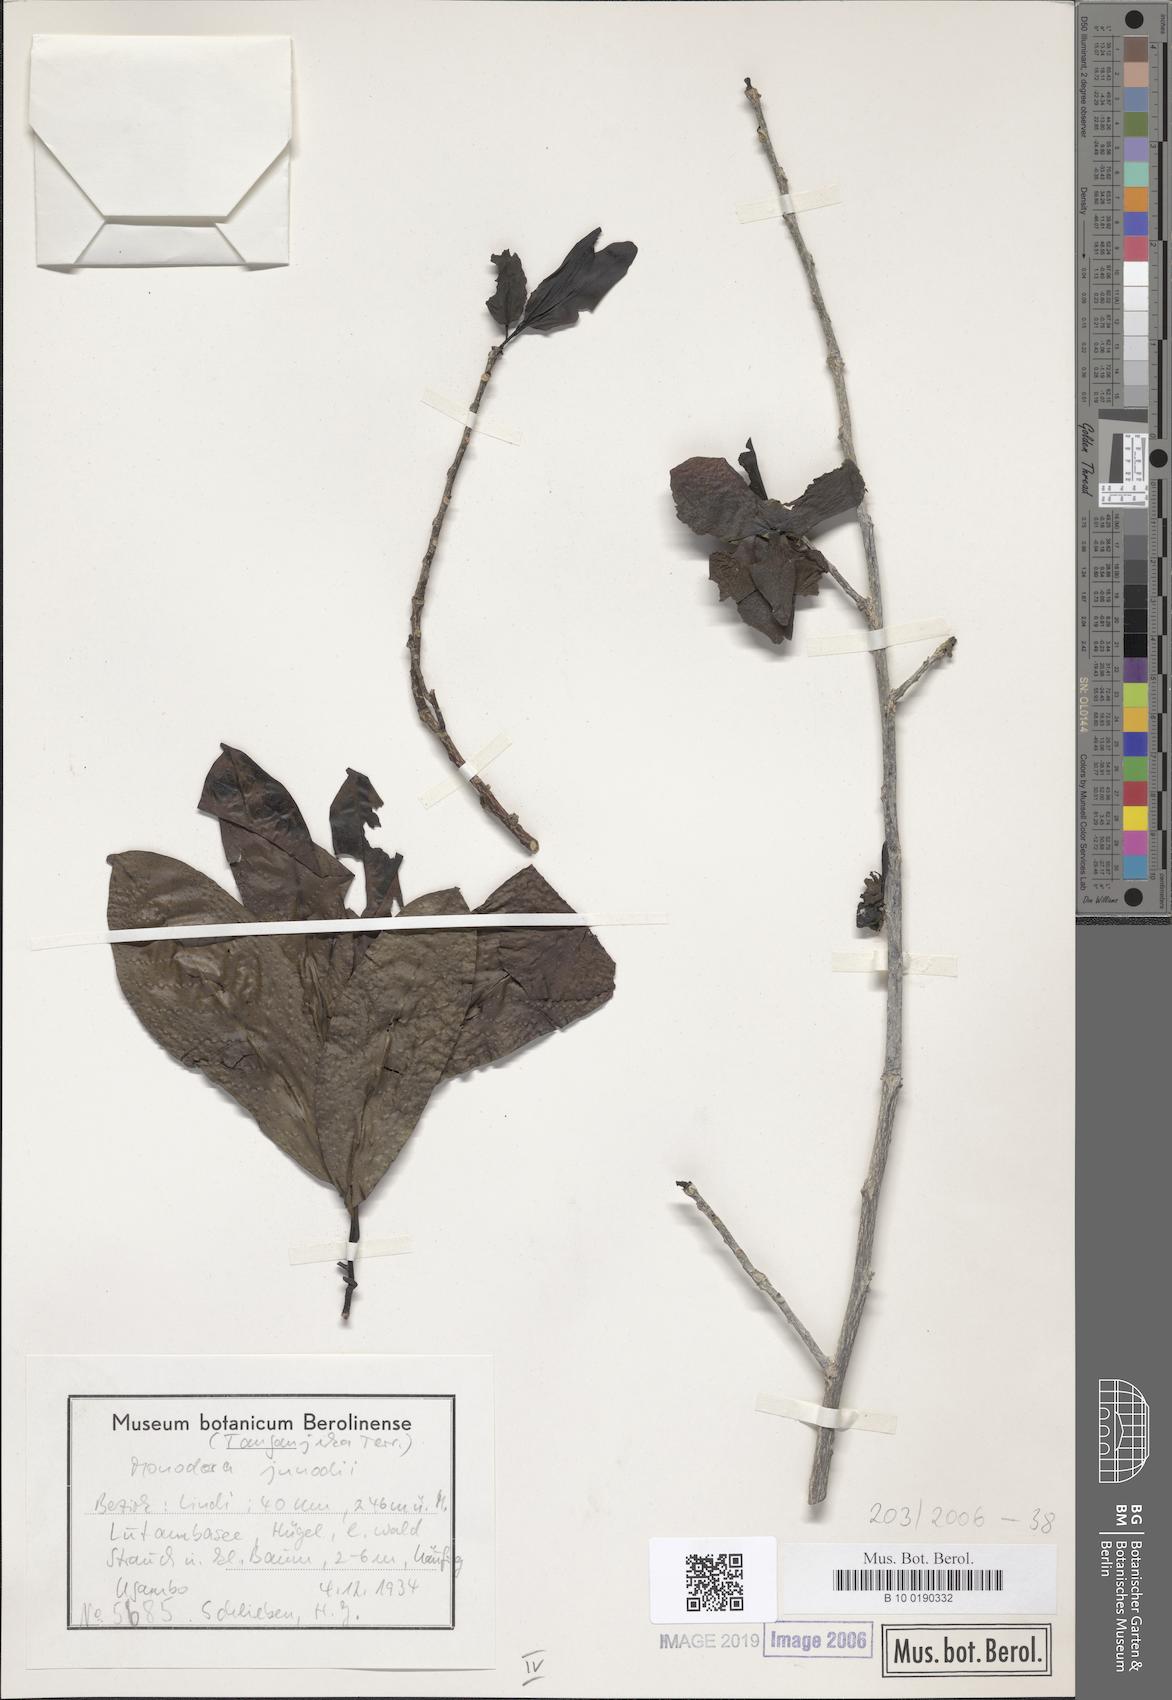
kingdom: Plantae
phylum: Tracheophyta
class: Magnoliopsida
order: Magnoliales
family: Annonaceae
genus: Monodora
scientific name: Monodora junodii
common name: Green-apple
